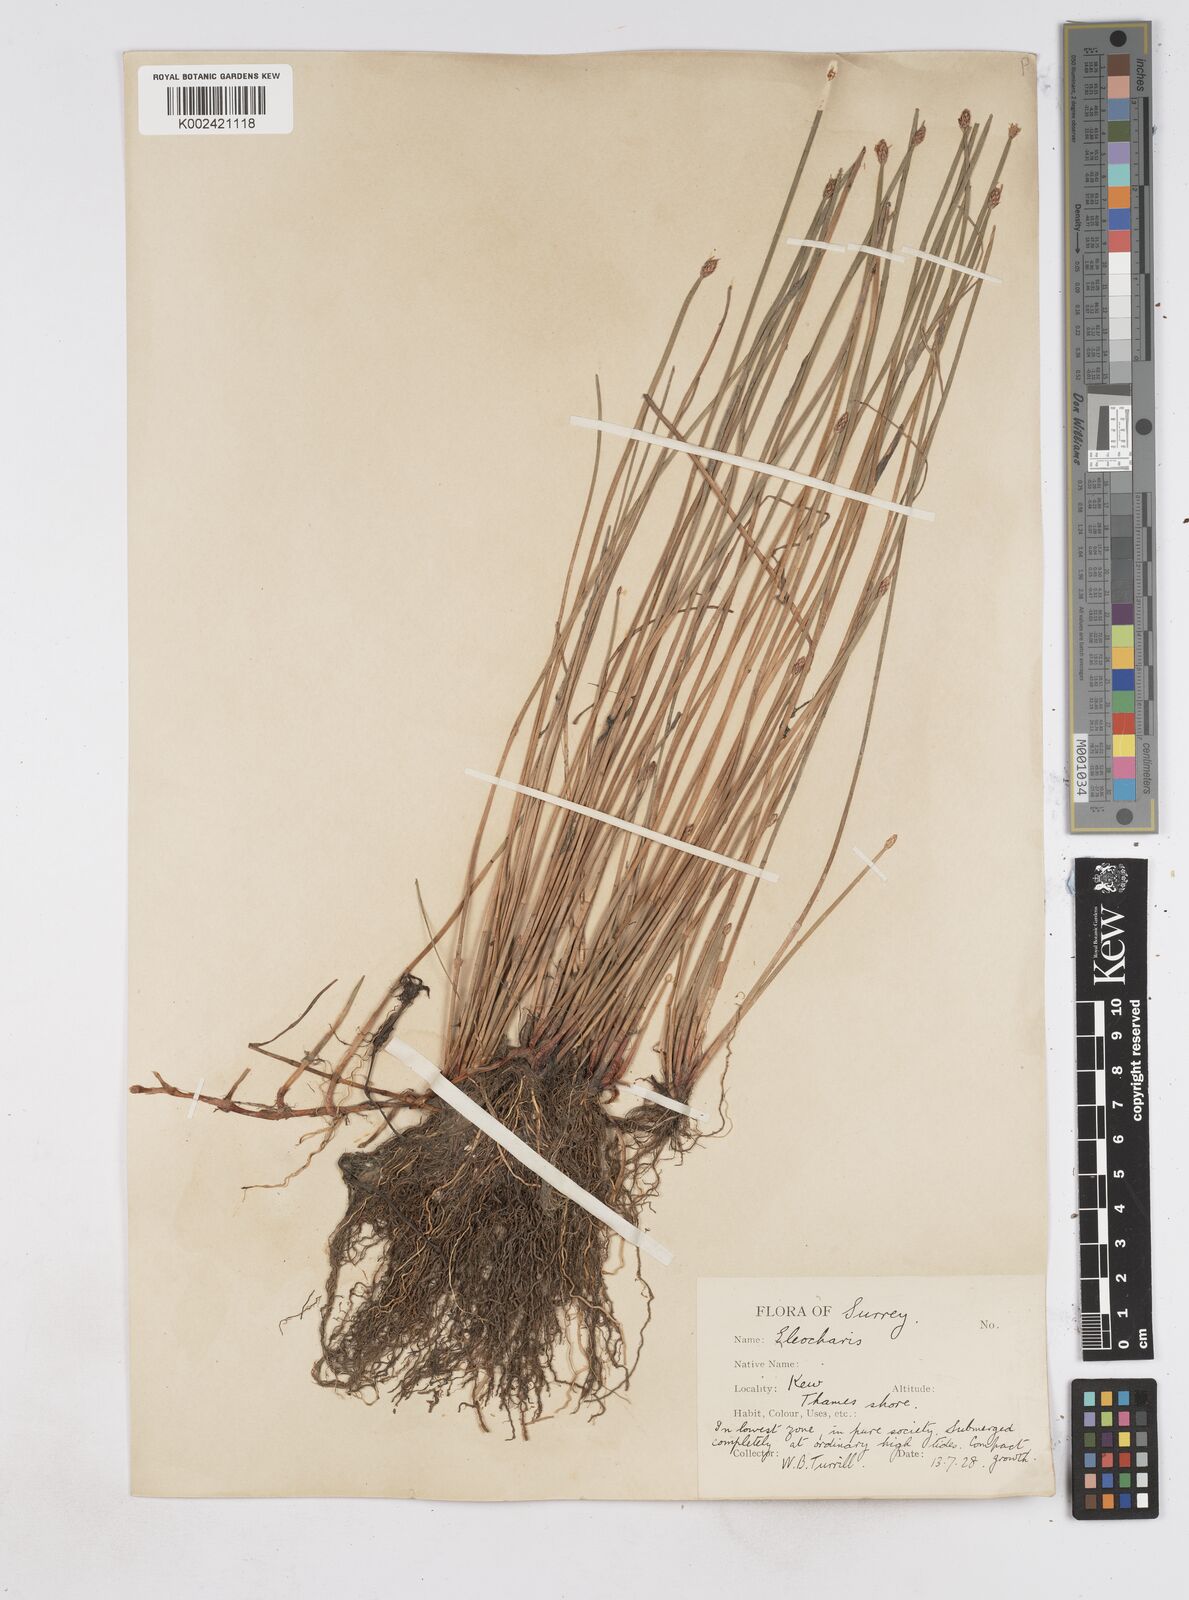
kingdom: Plantae
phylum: Tracheophyta
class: Liliopsida
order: Poales
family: Cyperaceae
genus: Eleocharis
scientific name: Eleocharis palustris
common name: Common spike-rush
